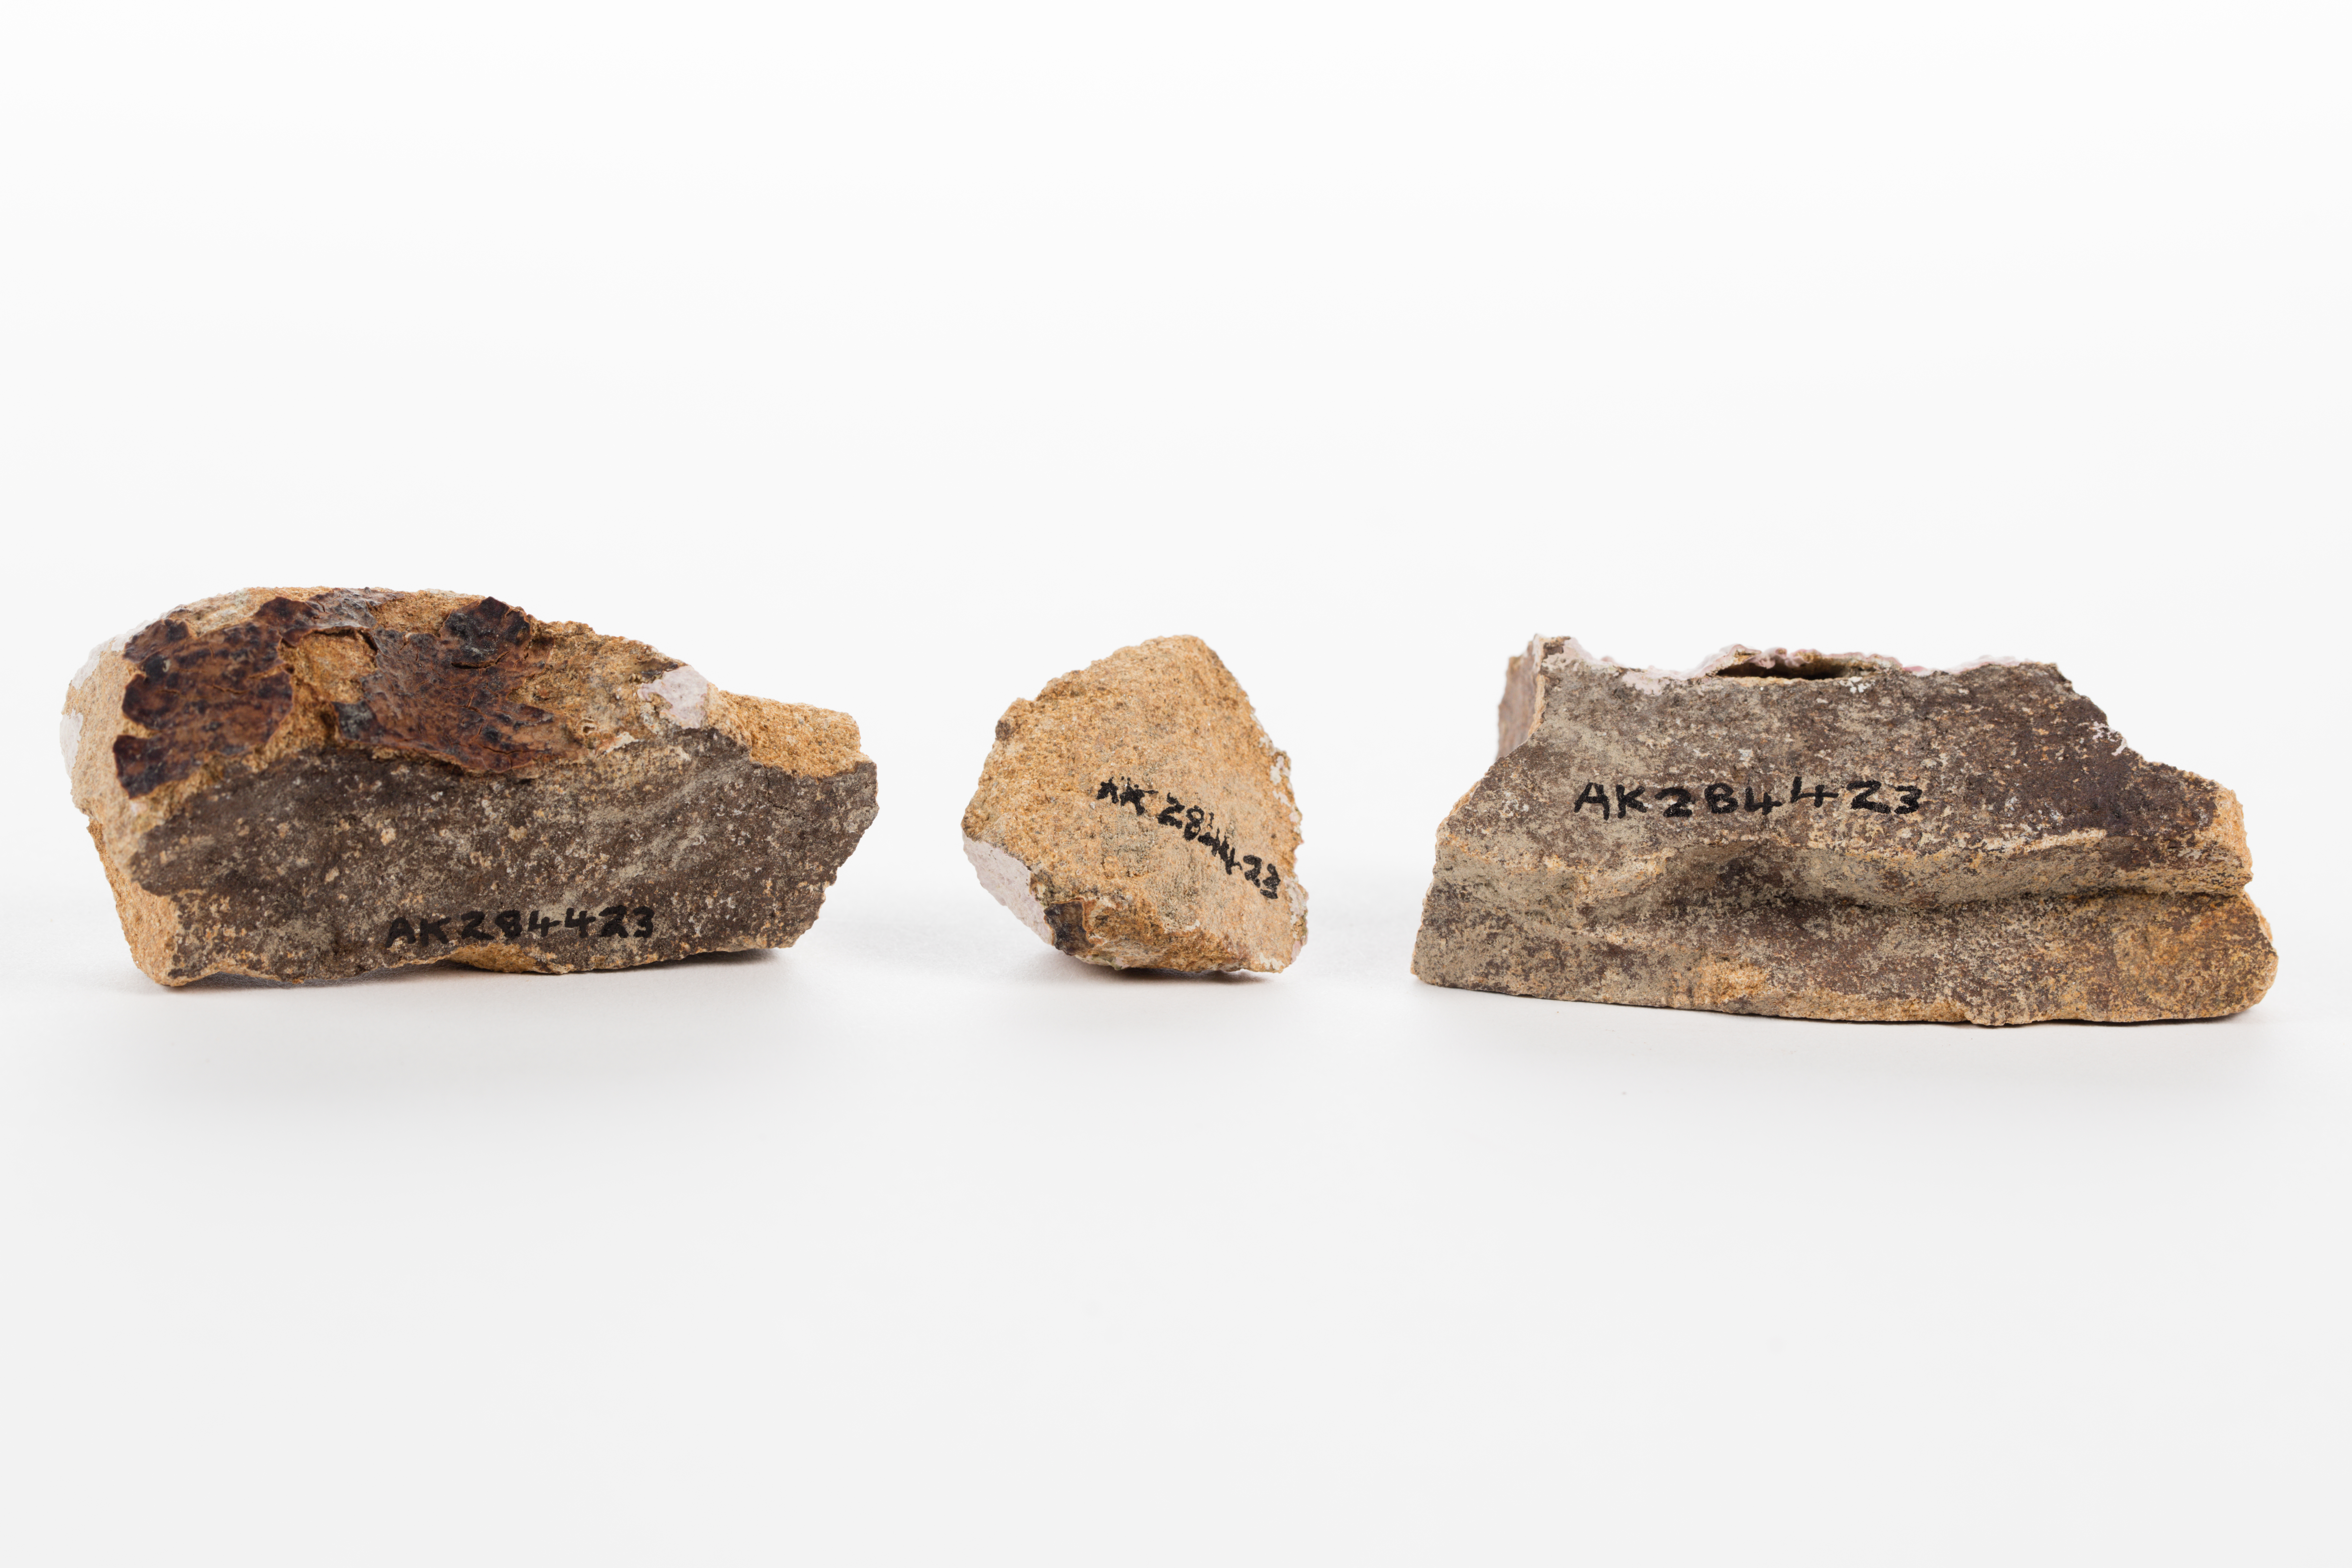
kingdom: Plantae
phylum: Rhodophyta
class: Florideophyceae
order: Corallinales
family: Corallinaceae
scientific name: Corallinaceae
